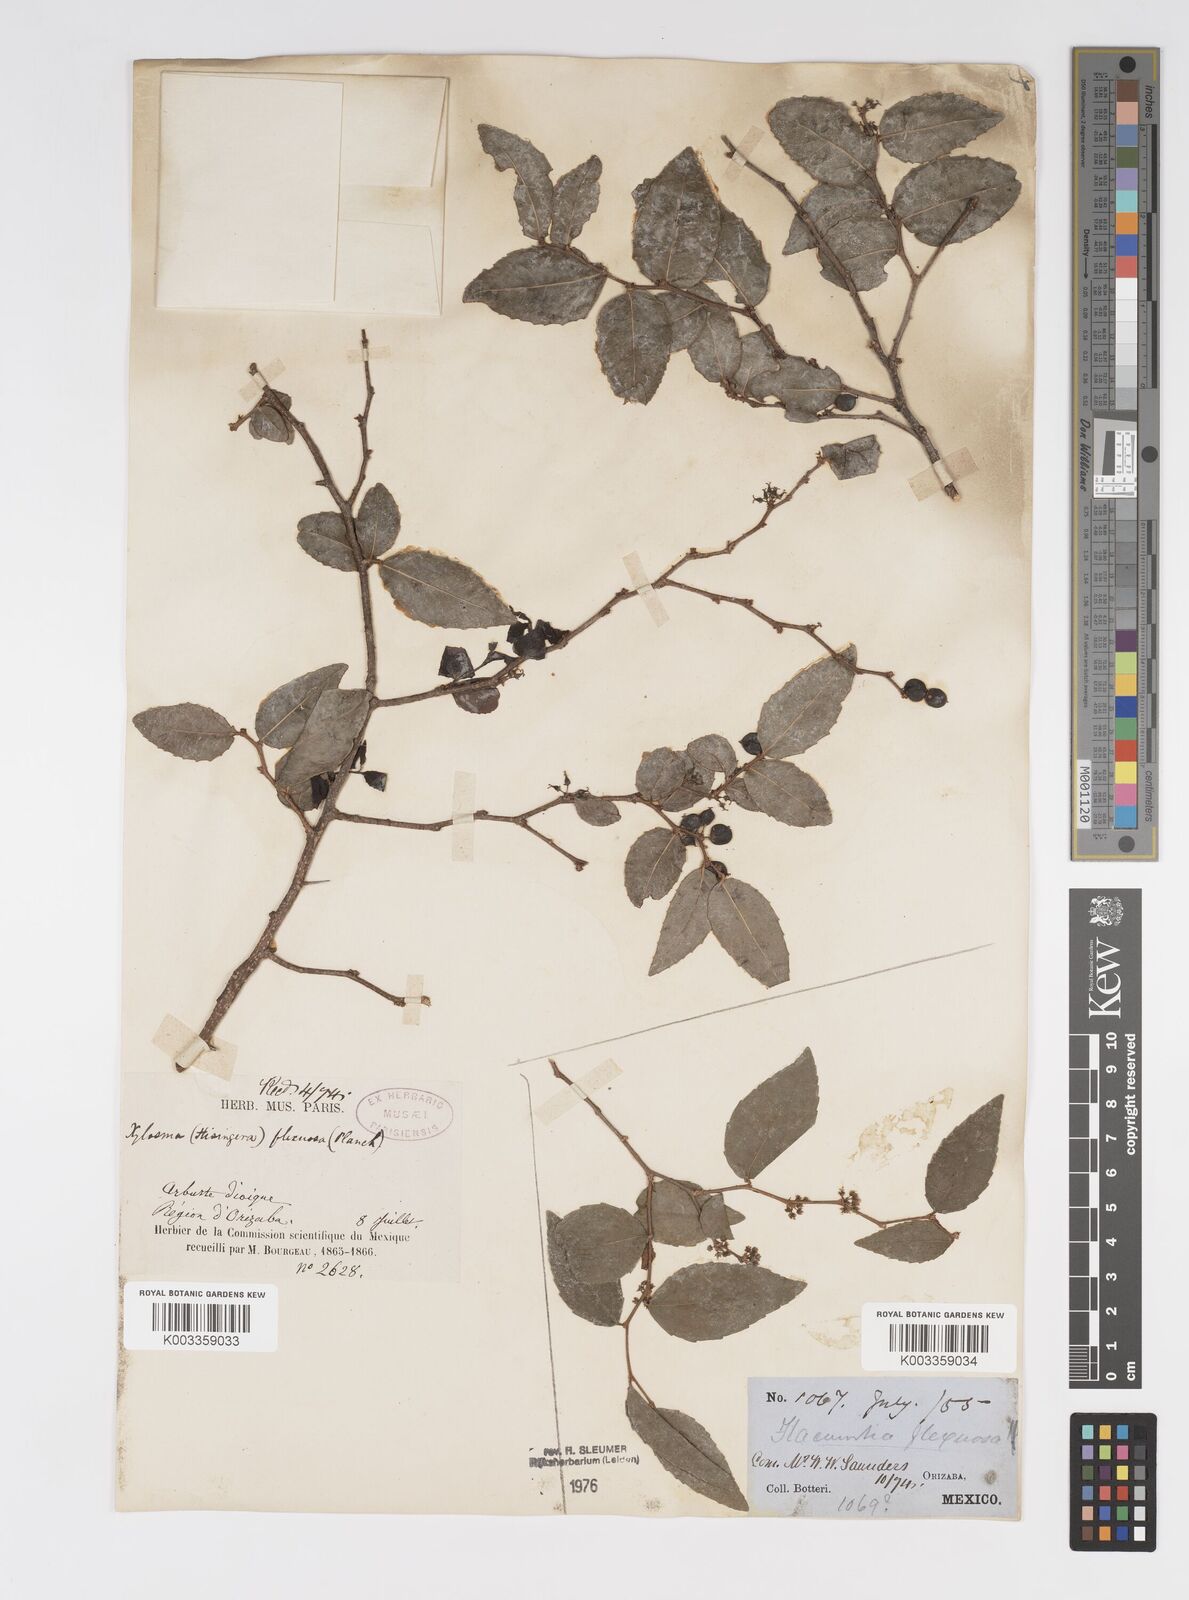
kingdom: Plantae
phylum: Tracheophyta
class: Magnoliopsida
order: Malpighiales
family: Salicaceae
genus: Xylosma
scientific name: Xylosma flexuosa
